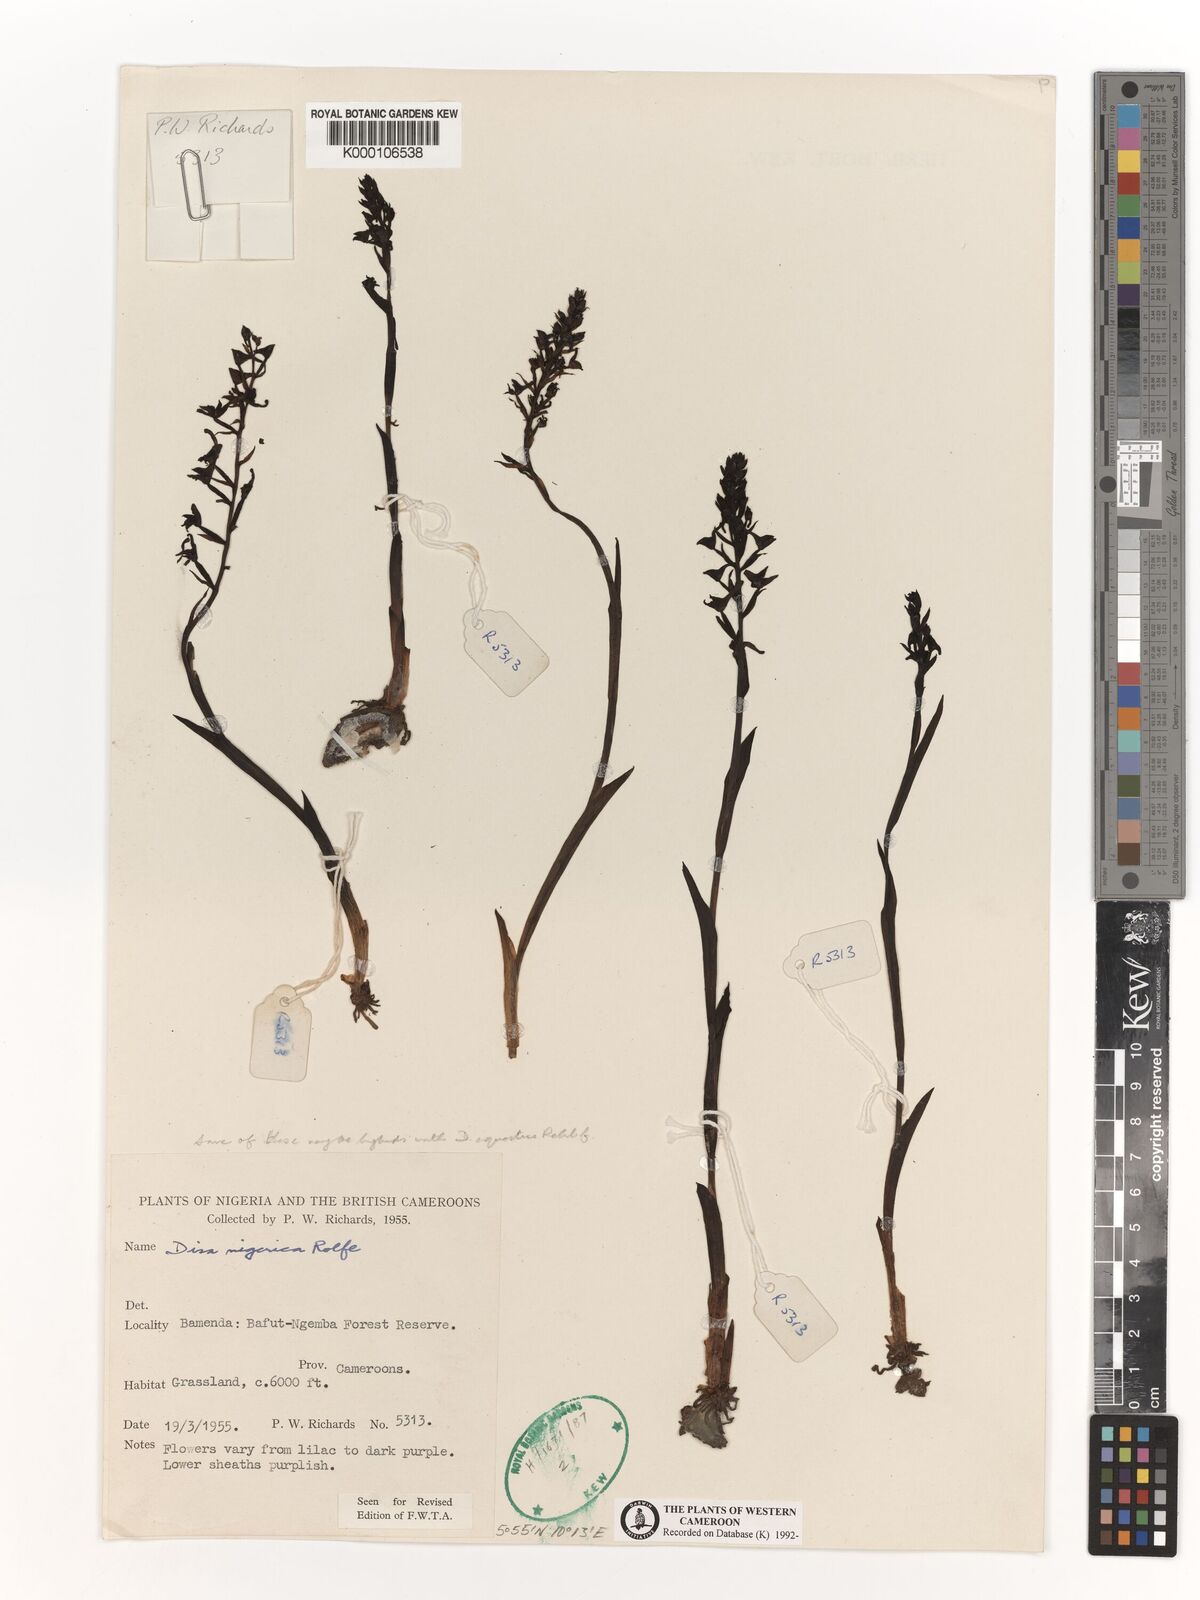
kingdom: Plantae
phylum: Tracheophyta
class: Liliopsida
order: Asparagales
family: Orchidaceae
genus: Disa
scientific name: Disa nigerica
